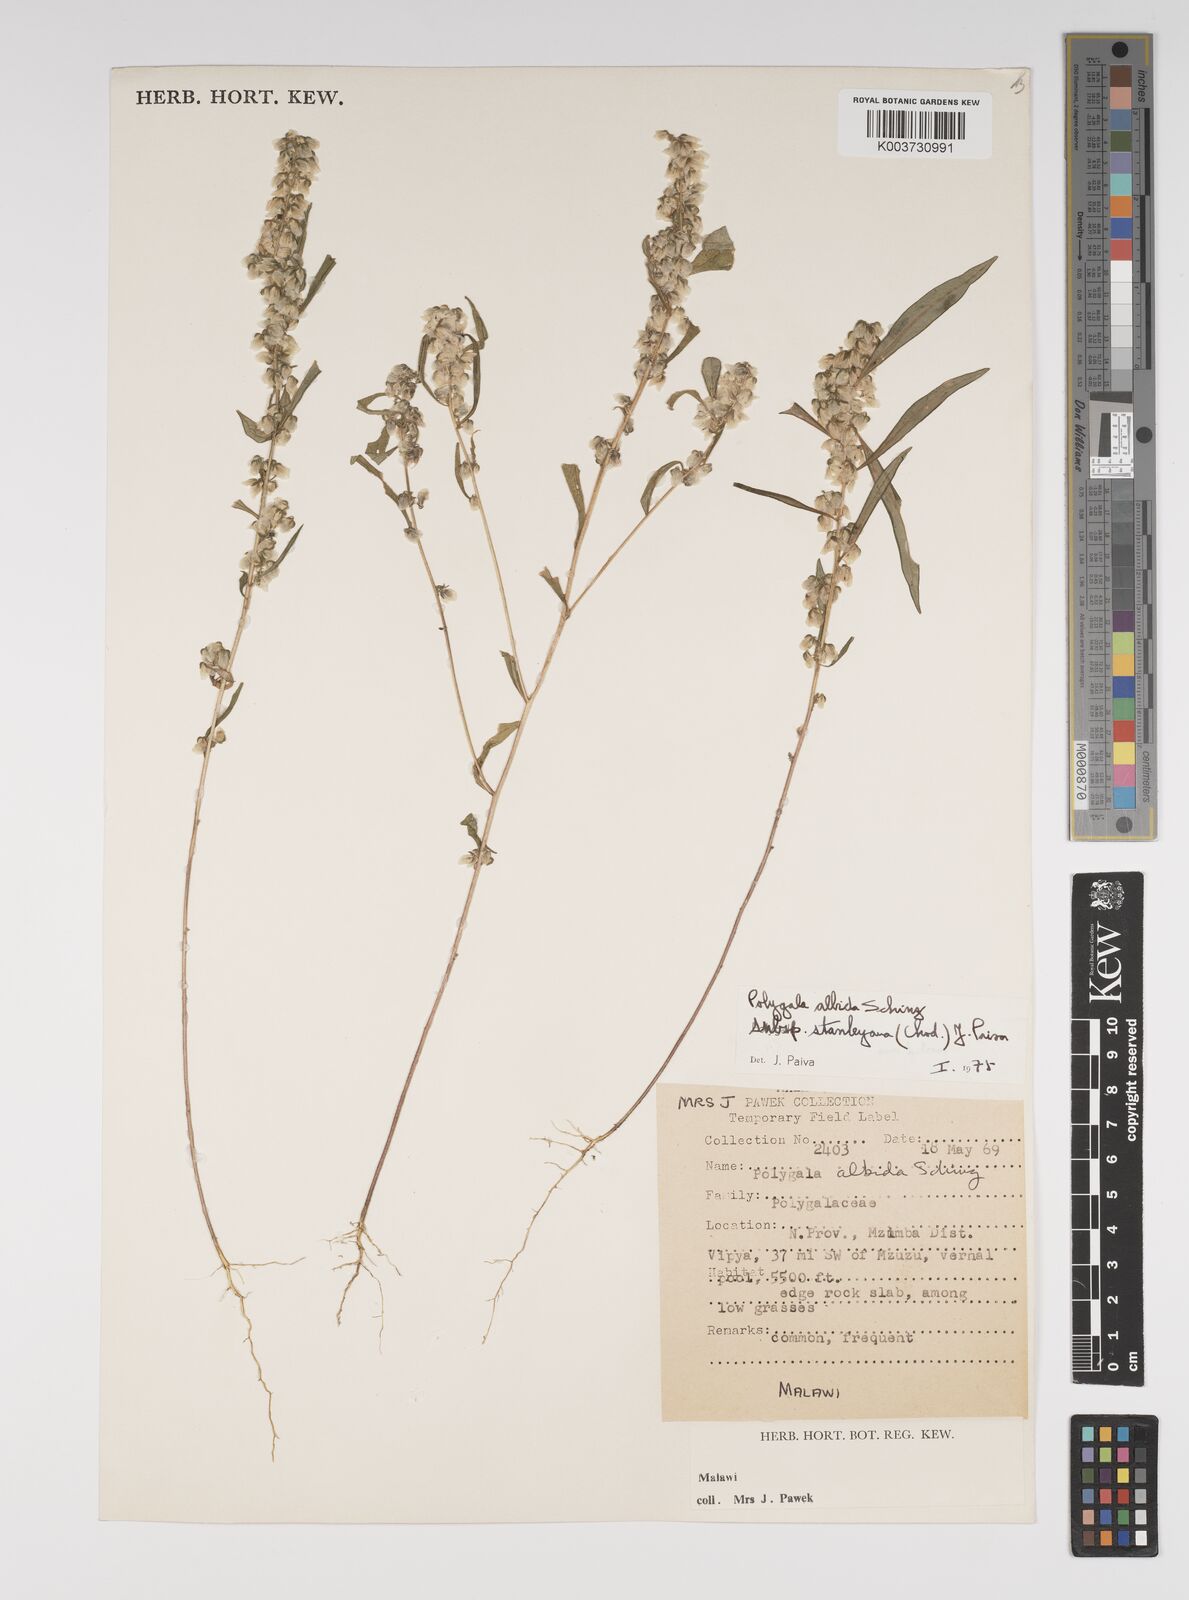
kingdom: Plantae
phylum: Tracheophyta
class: Magnoliopsida
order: Fabales
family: Polygalaceae
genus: Polygala
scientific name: Polygala albida
